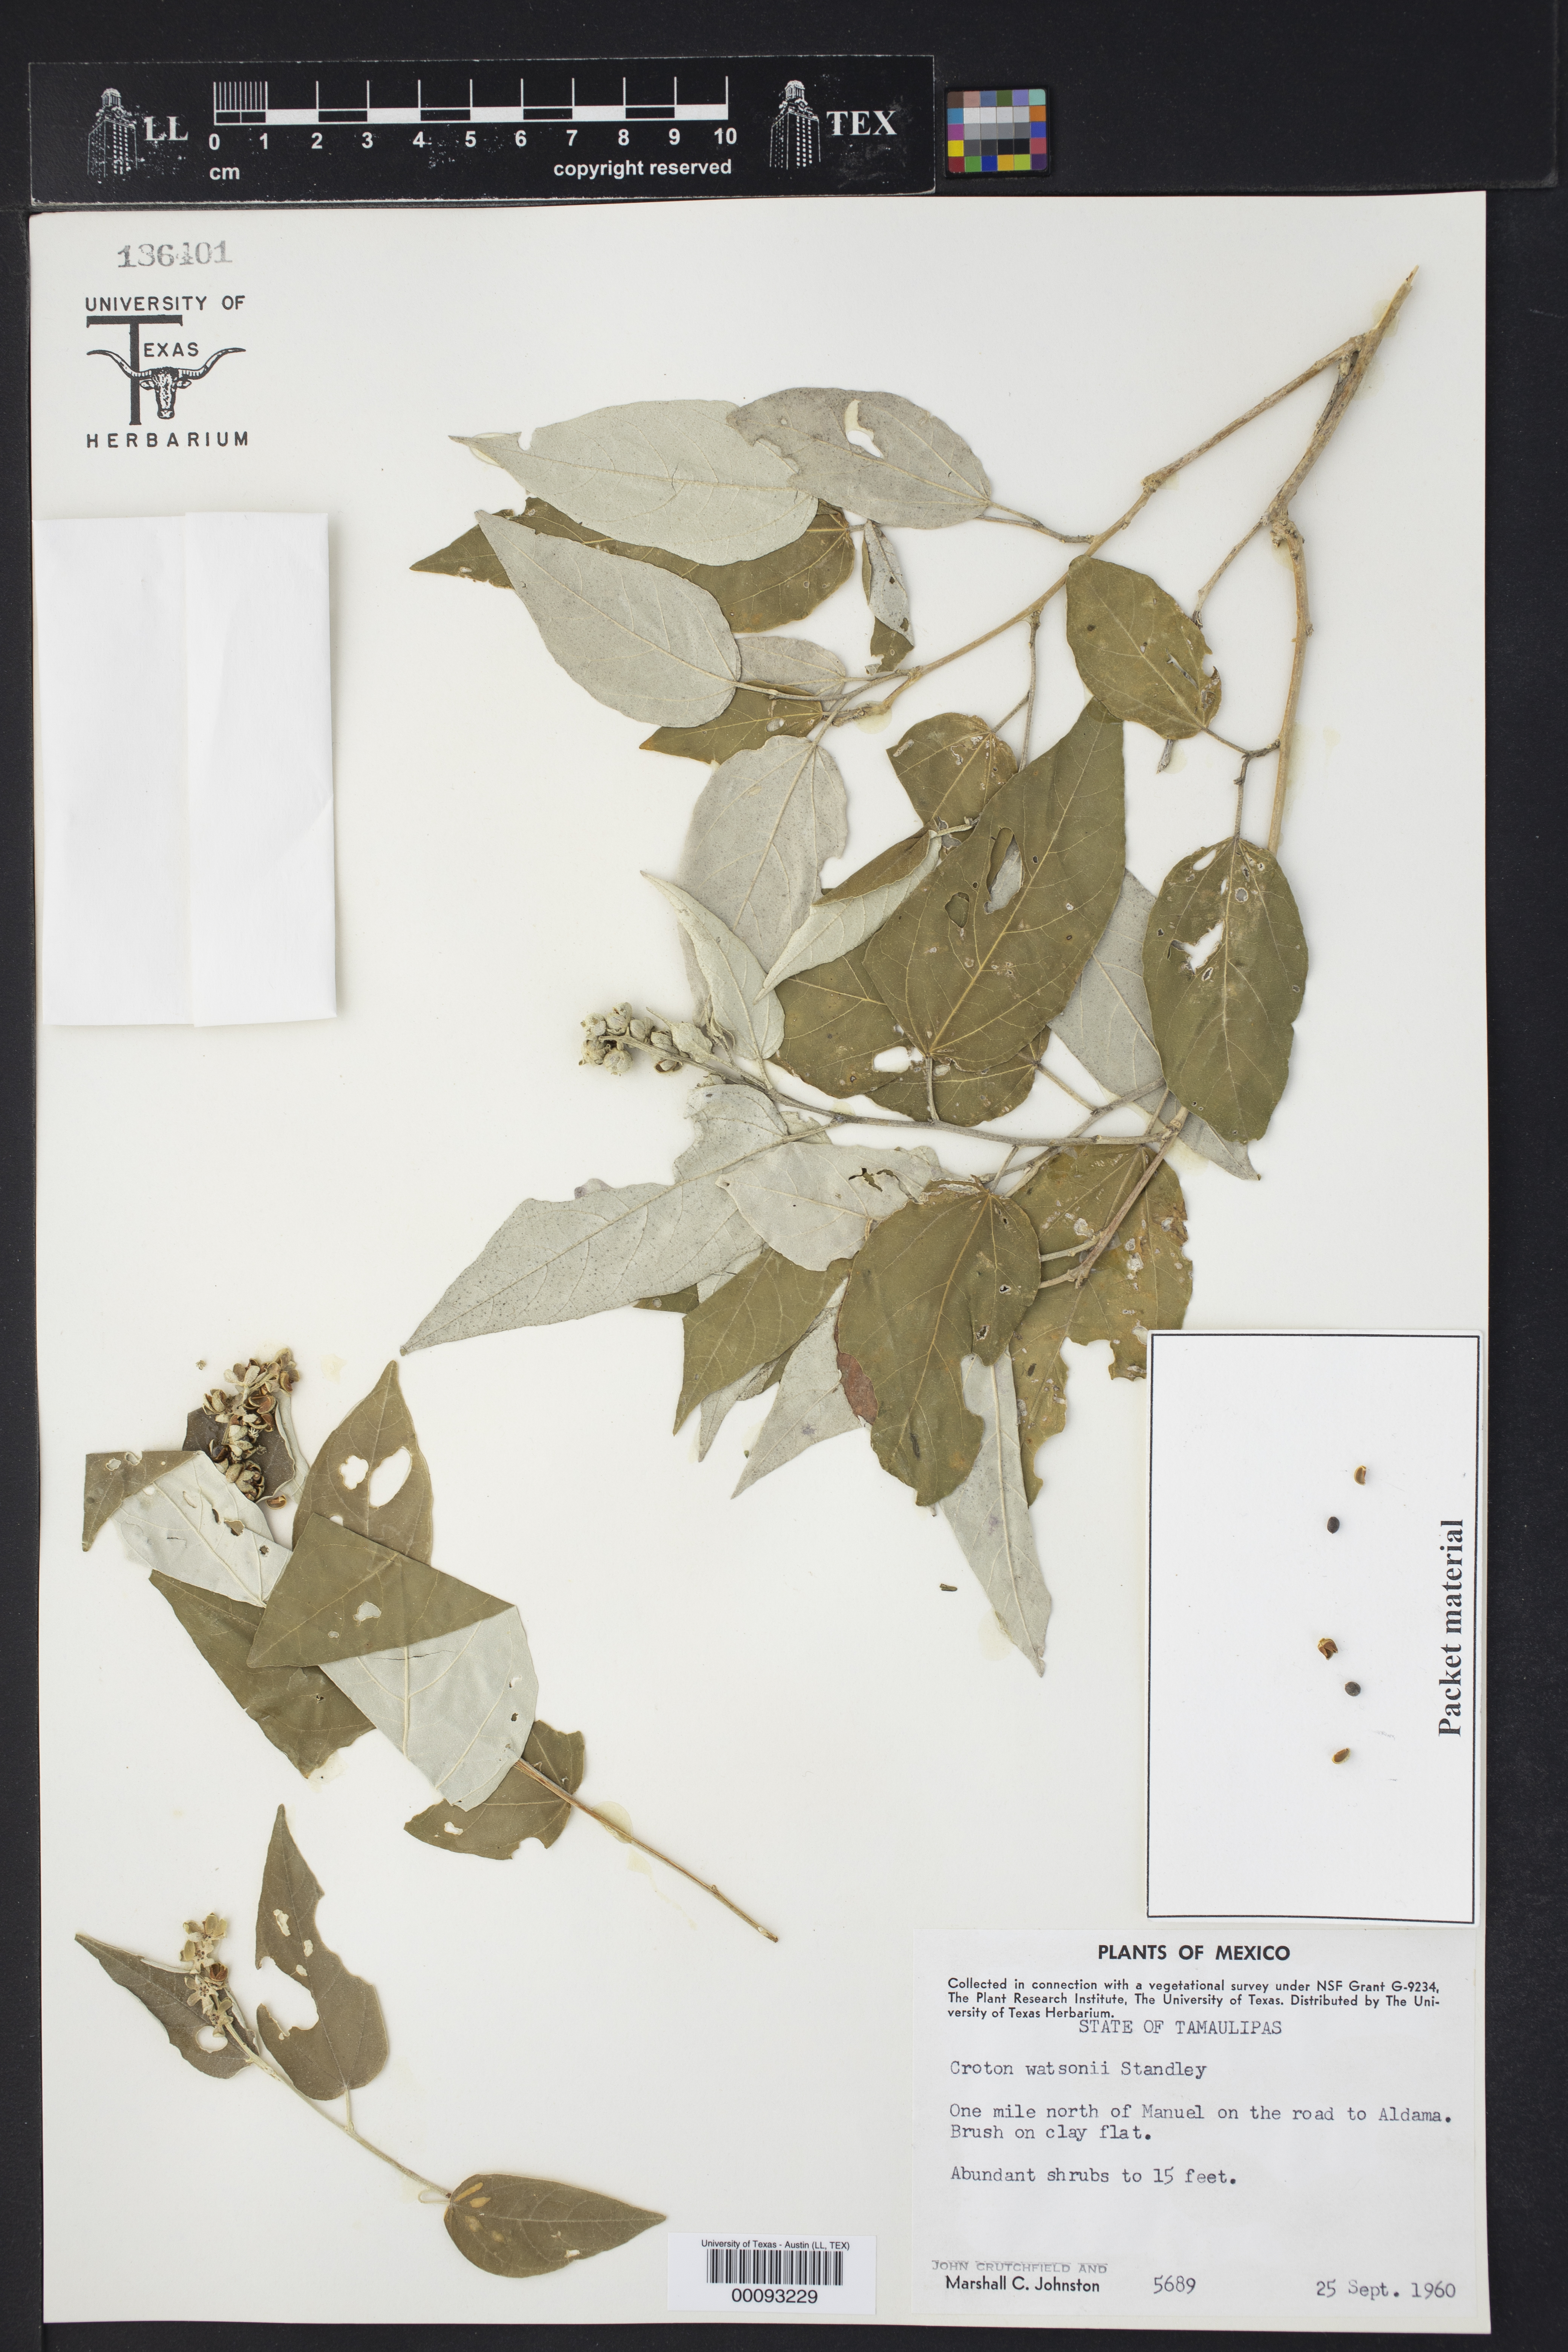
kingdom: Plantae
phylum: Tracheophyta
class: Magnoliopsida
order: Malpighiales
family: Euphorbiaceae
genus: Croton
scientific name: Croton watsonii
